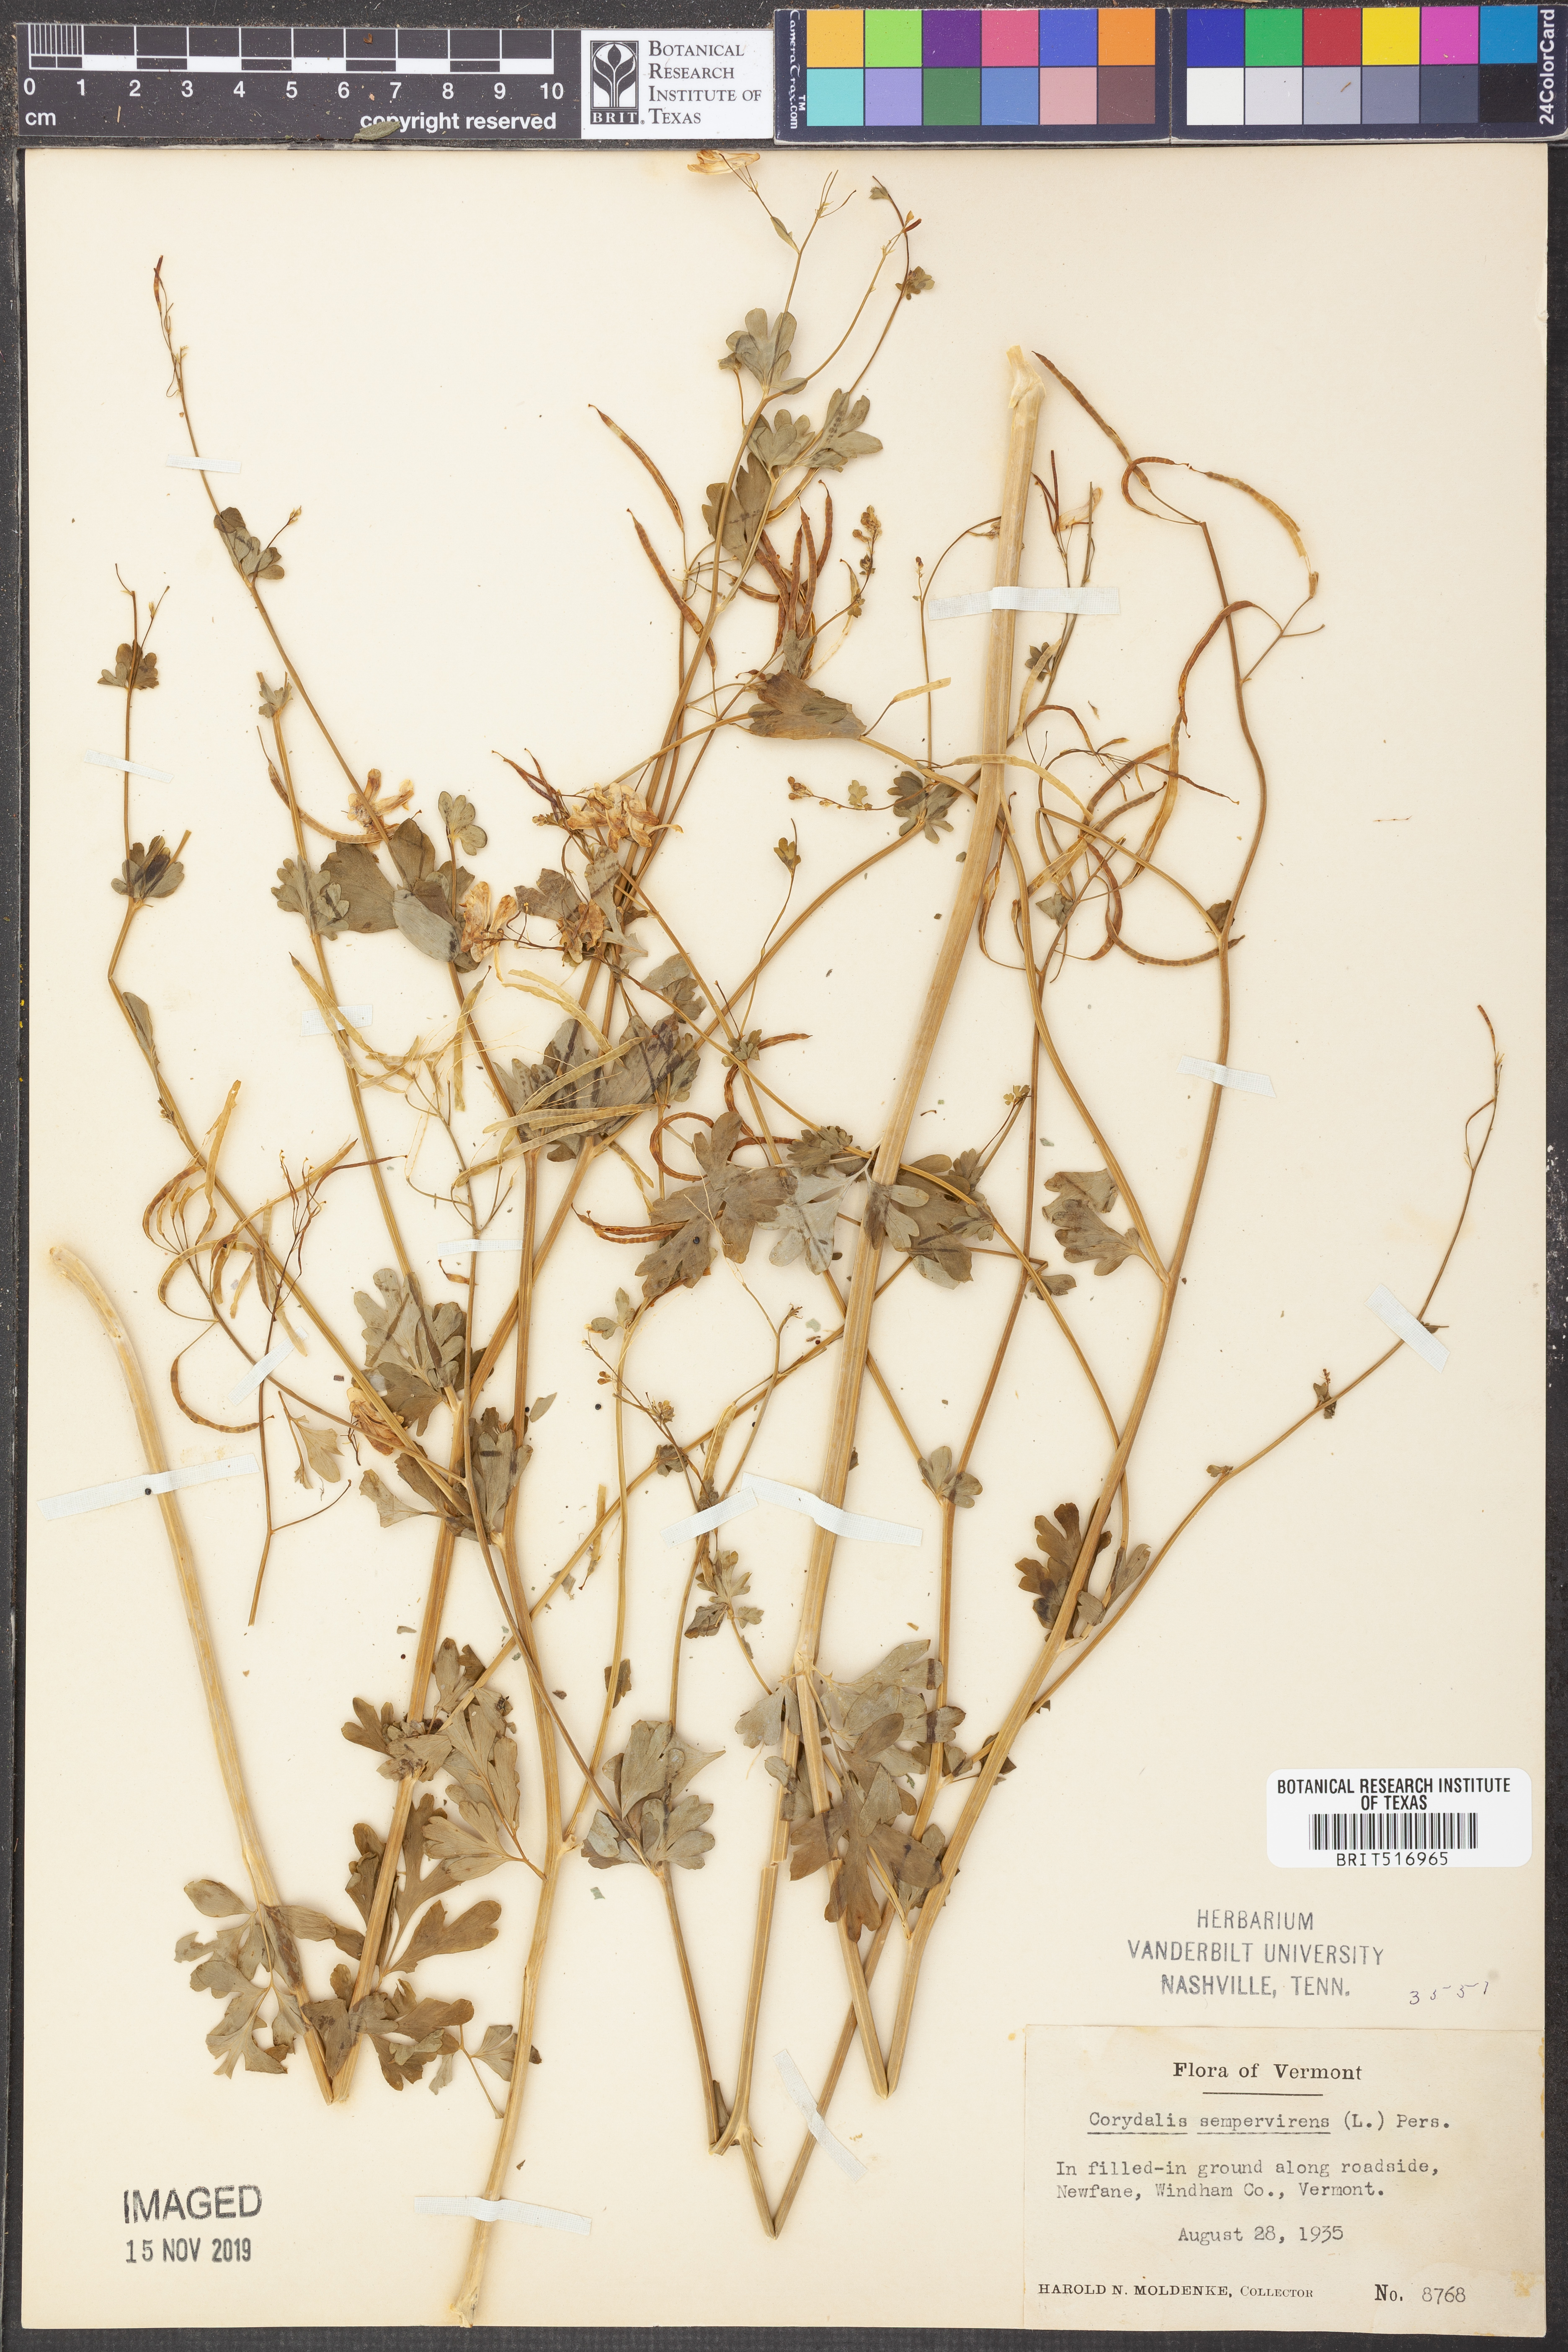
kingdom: Plantae
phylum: Tracheophyta
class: Magnoliopsida
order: Ranunculales
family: Papaveraceae
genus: Capnoides
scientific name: Capnoides sempervirens
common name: Rock harlequin
